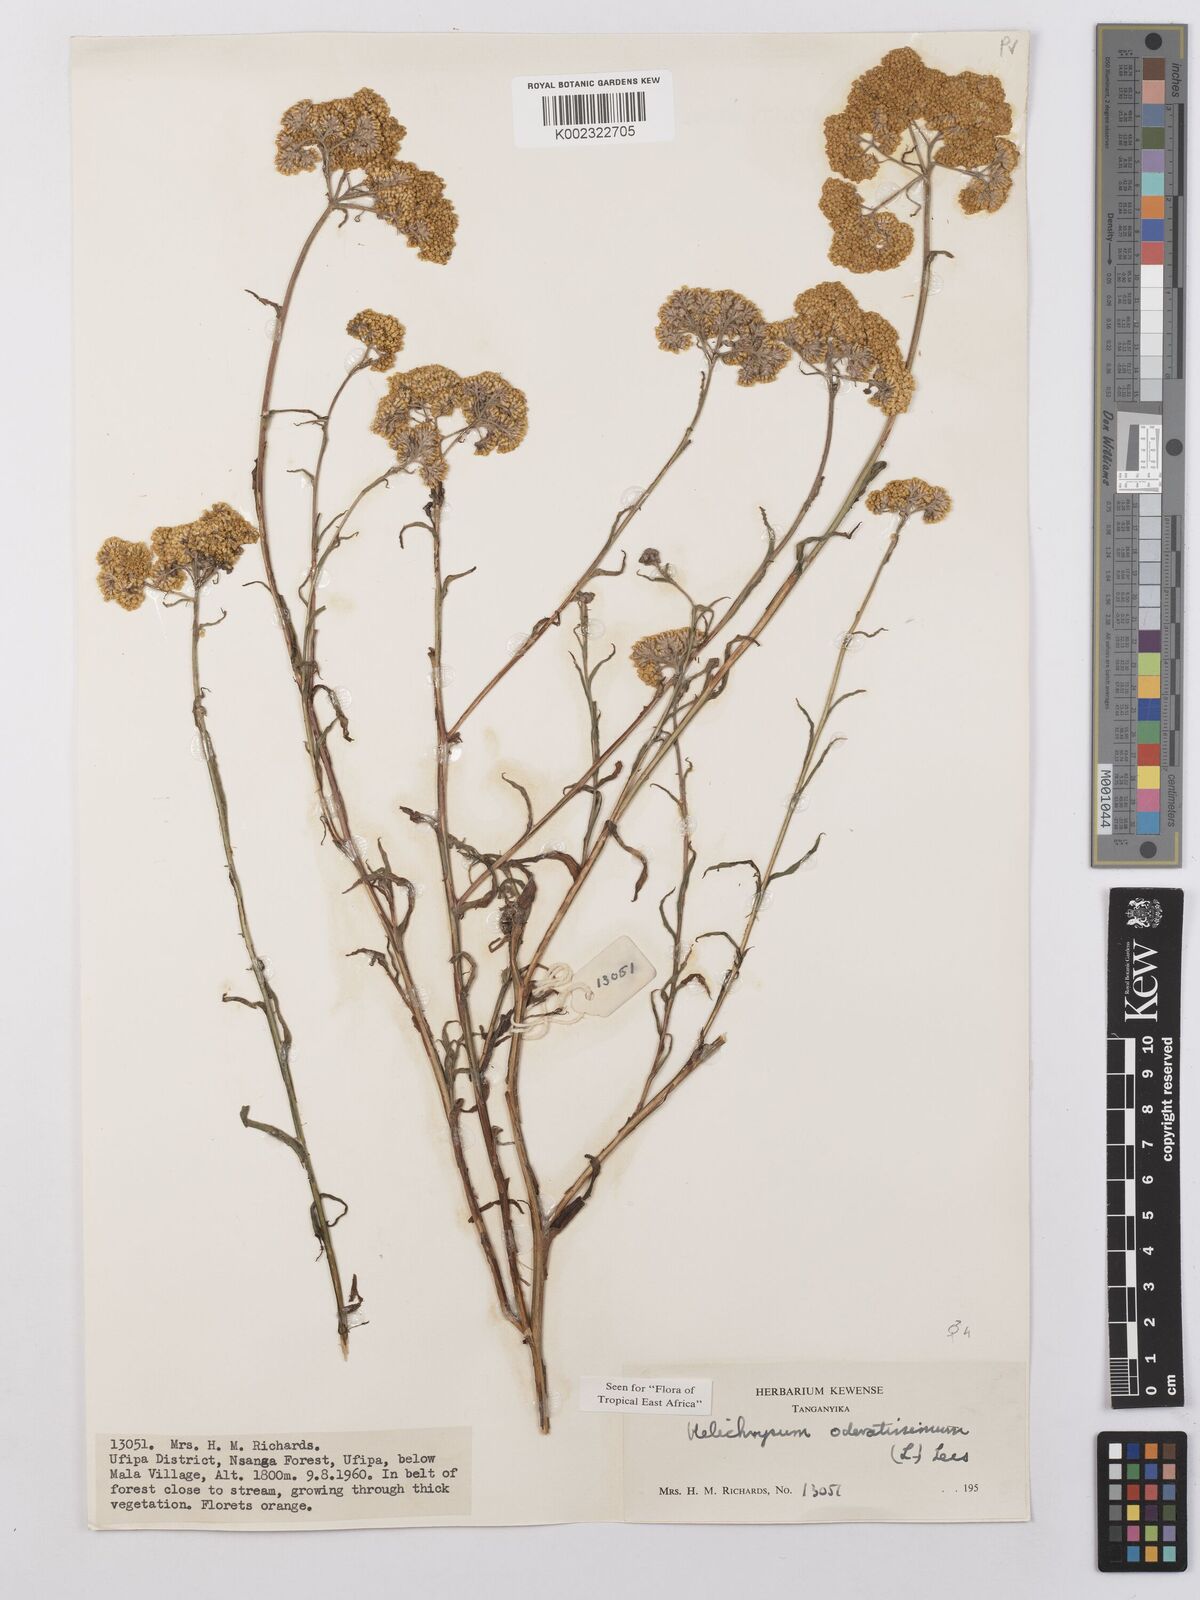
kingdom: Plantae
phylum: Tracheophyta
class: Magnoliopsida
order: Asterales
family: Asteraceae
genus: Helichrysum
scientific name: Helichrysum odoratissimum
